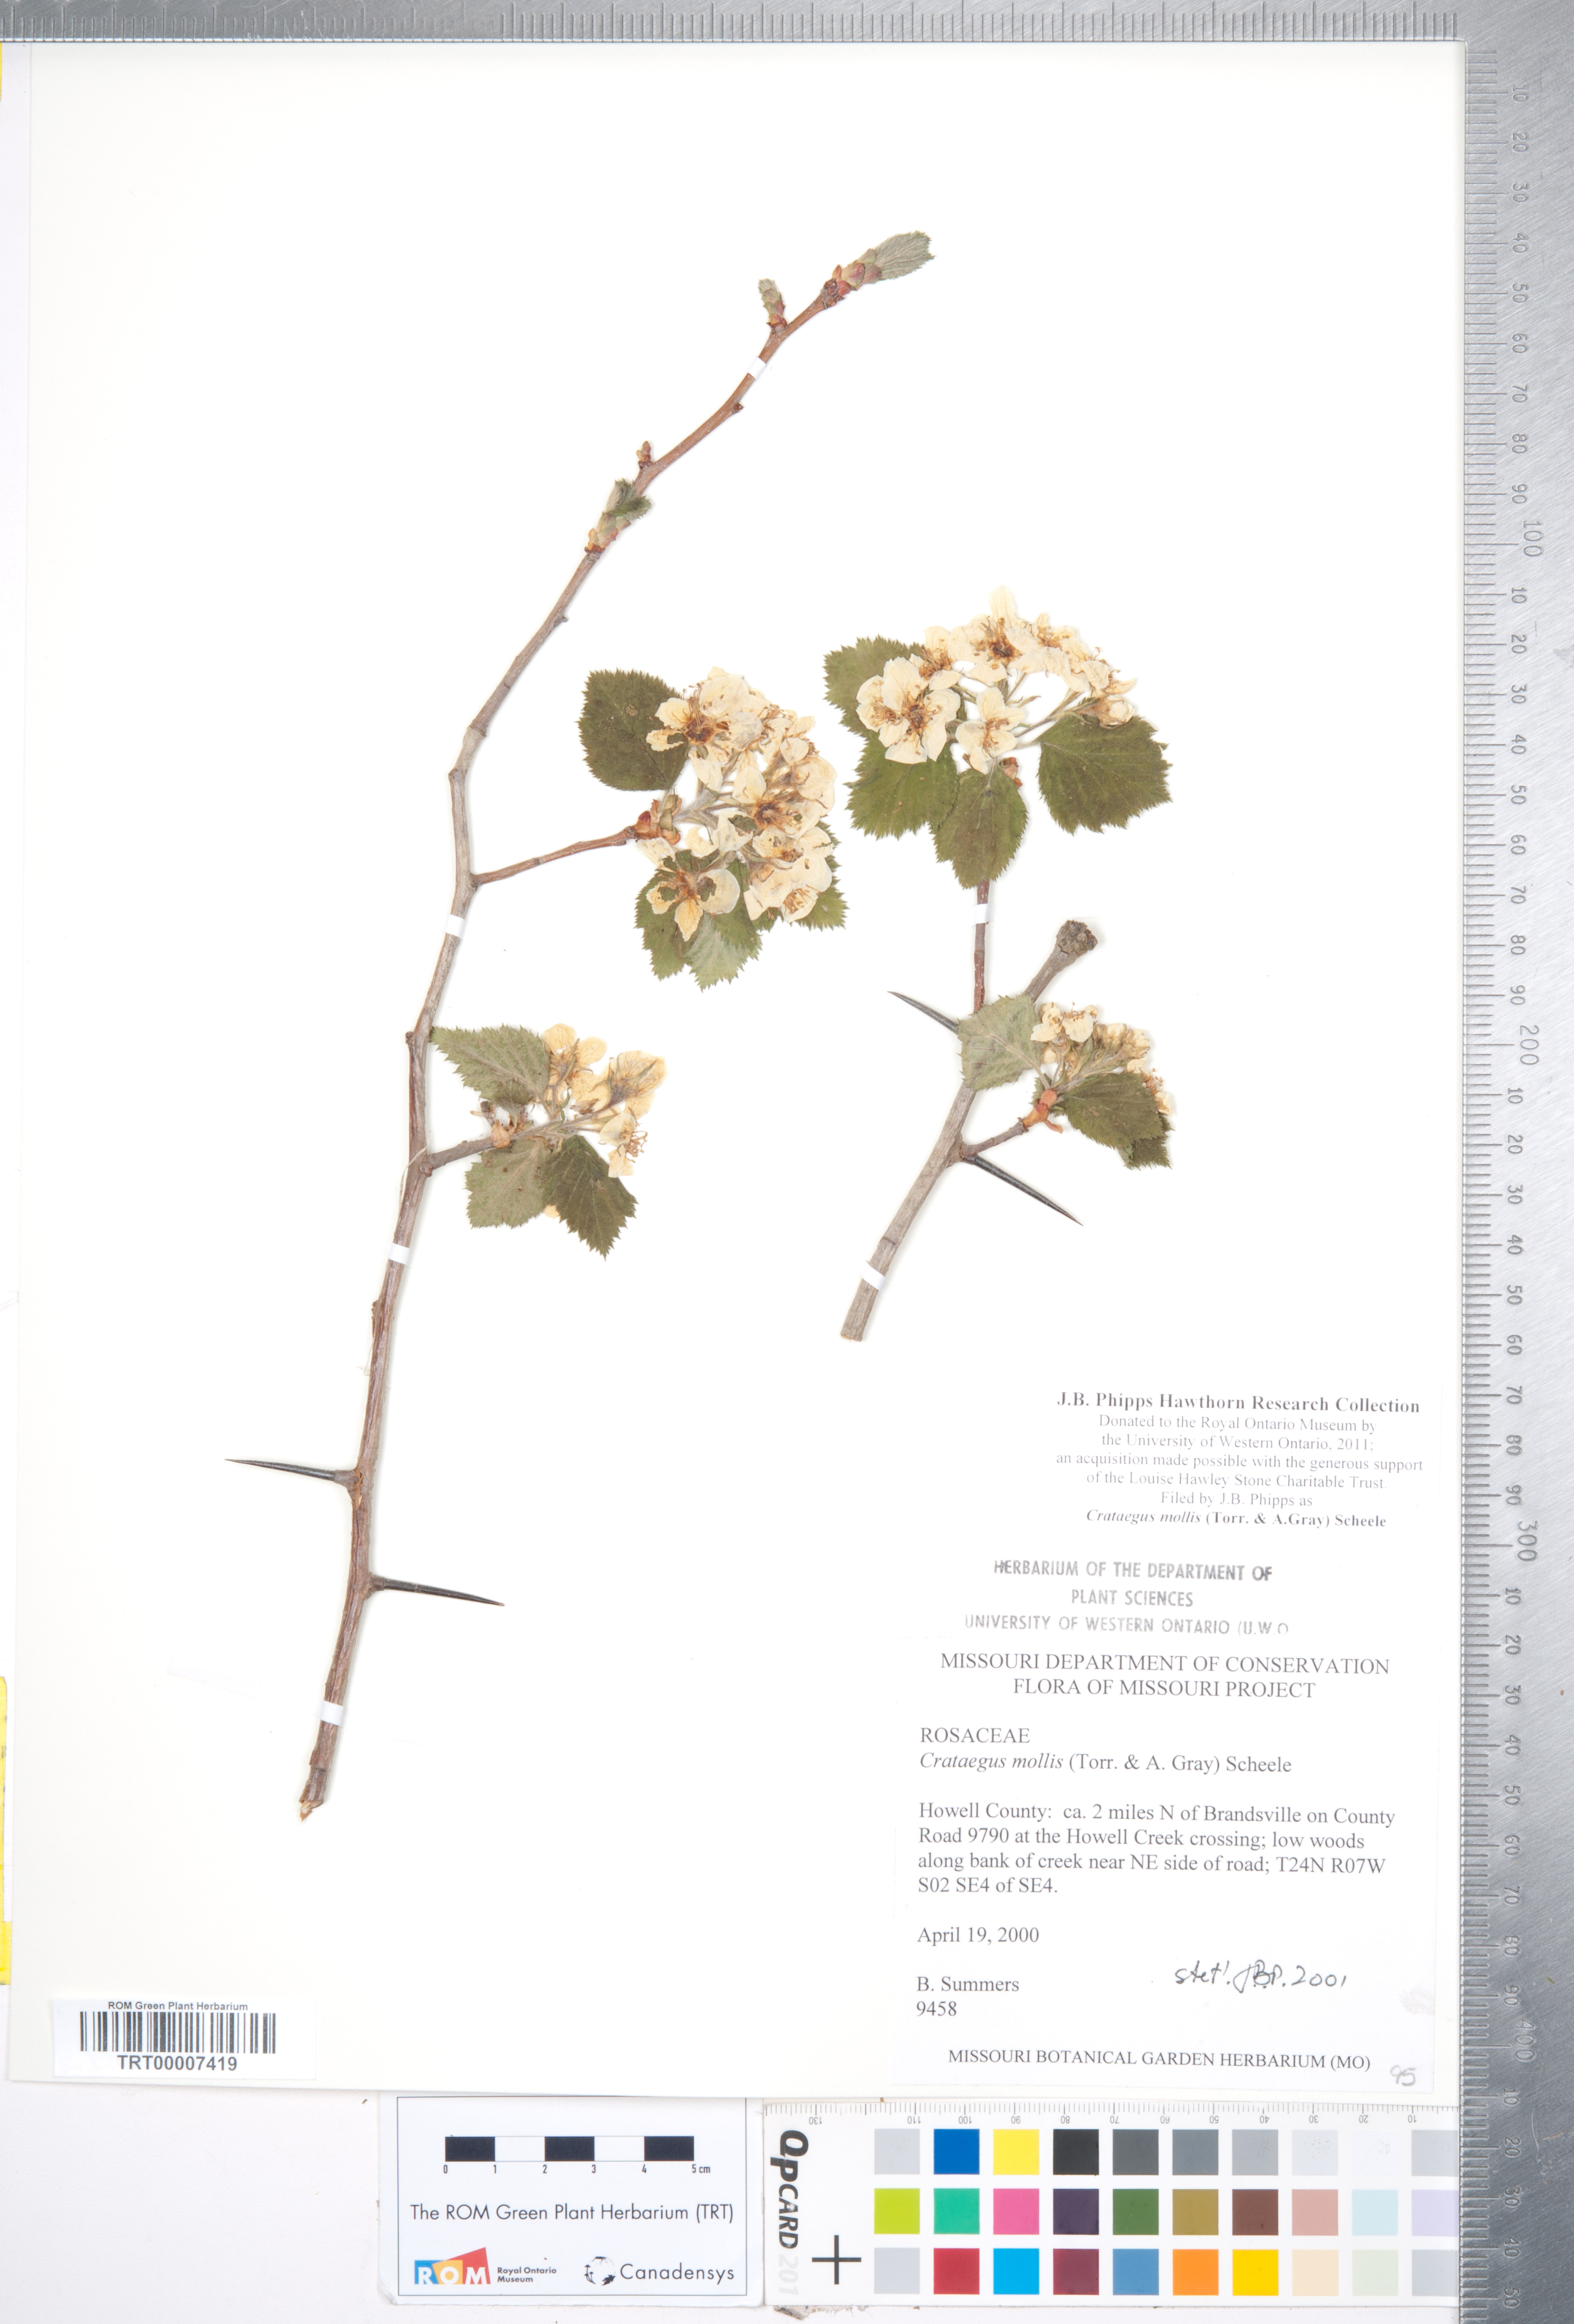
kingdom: Plantae
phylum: Tracheophyta
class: Magnoliopsida
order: Rosales
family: Rosaceae
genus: Crataegus
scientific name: Crataegus mollis
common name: Downy hawthorn
